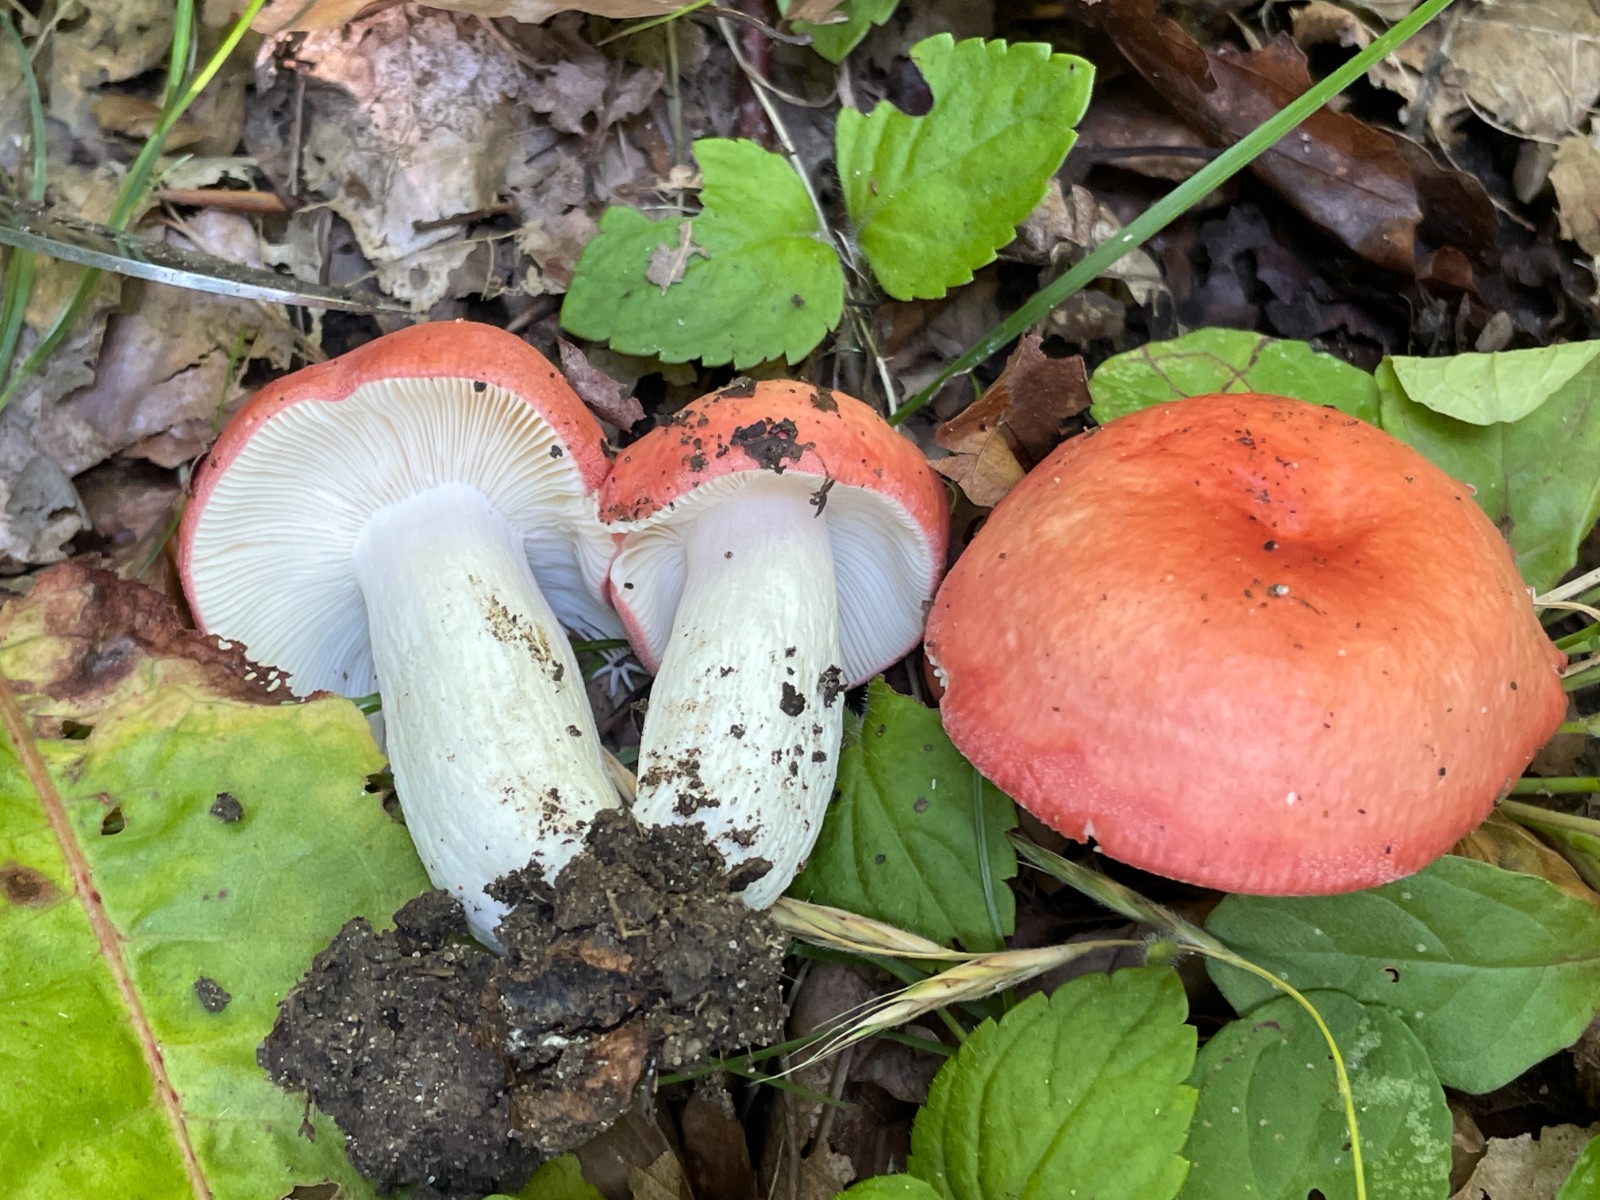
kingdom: Fungi
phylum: Basidiomycota
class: Agaricomycetes
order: Russulales
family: Russulaceae
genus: Russula
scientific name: Russula pseudointegra
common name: cinnoberrød skørhat
